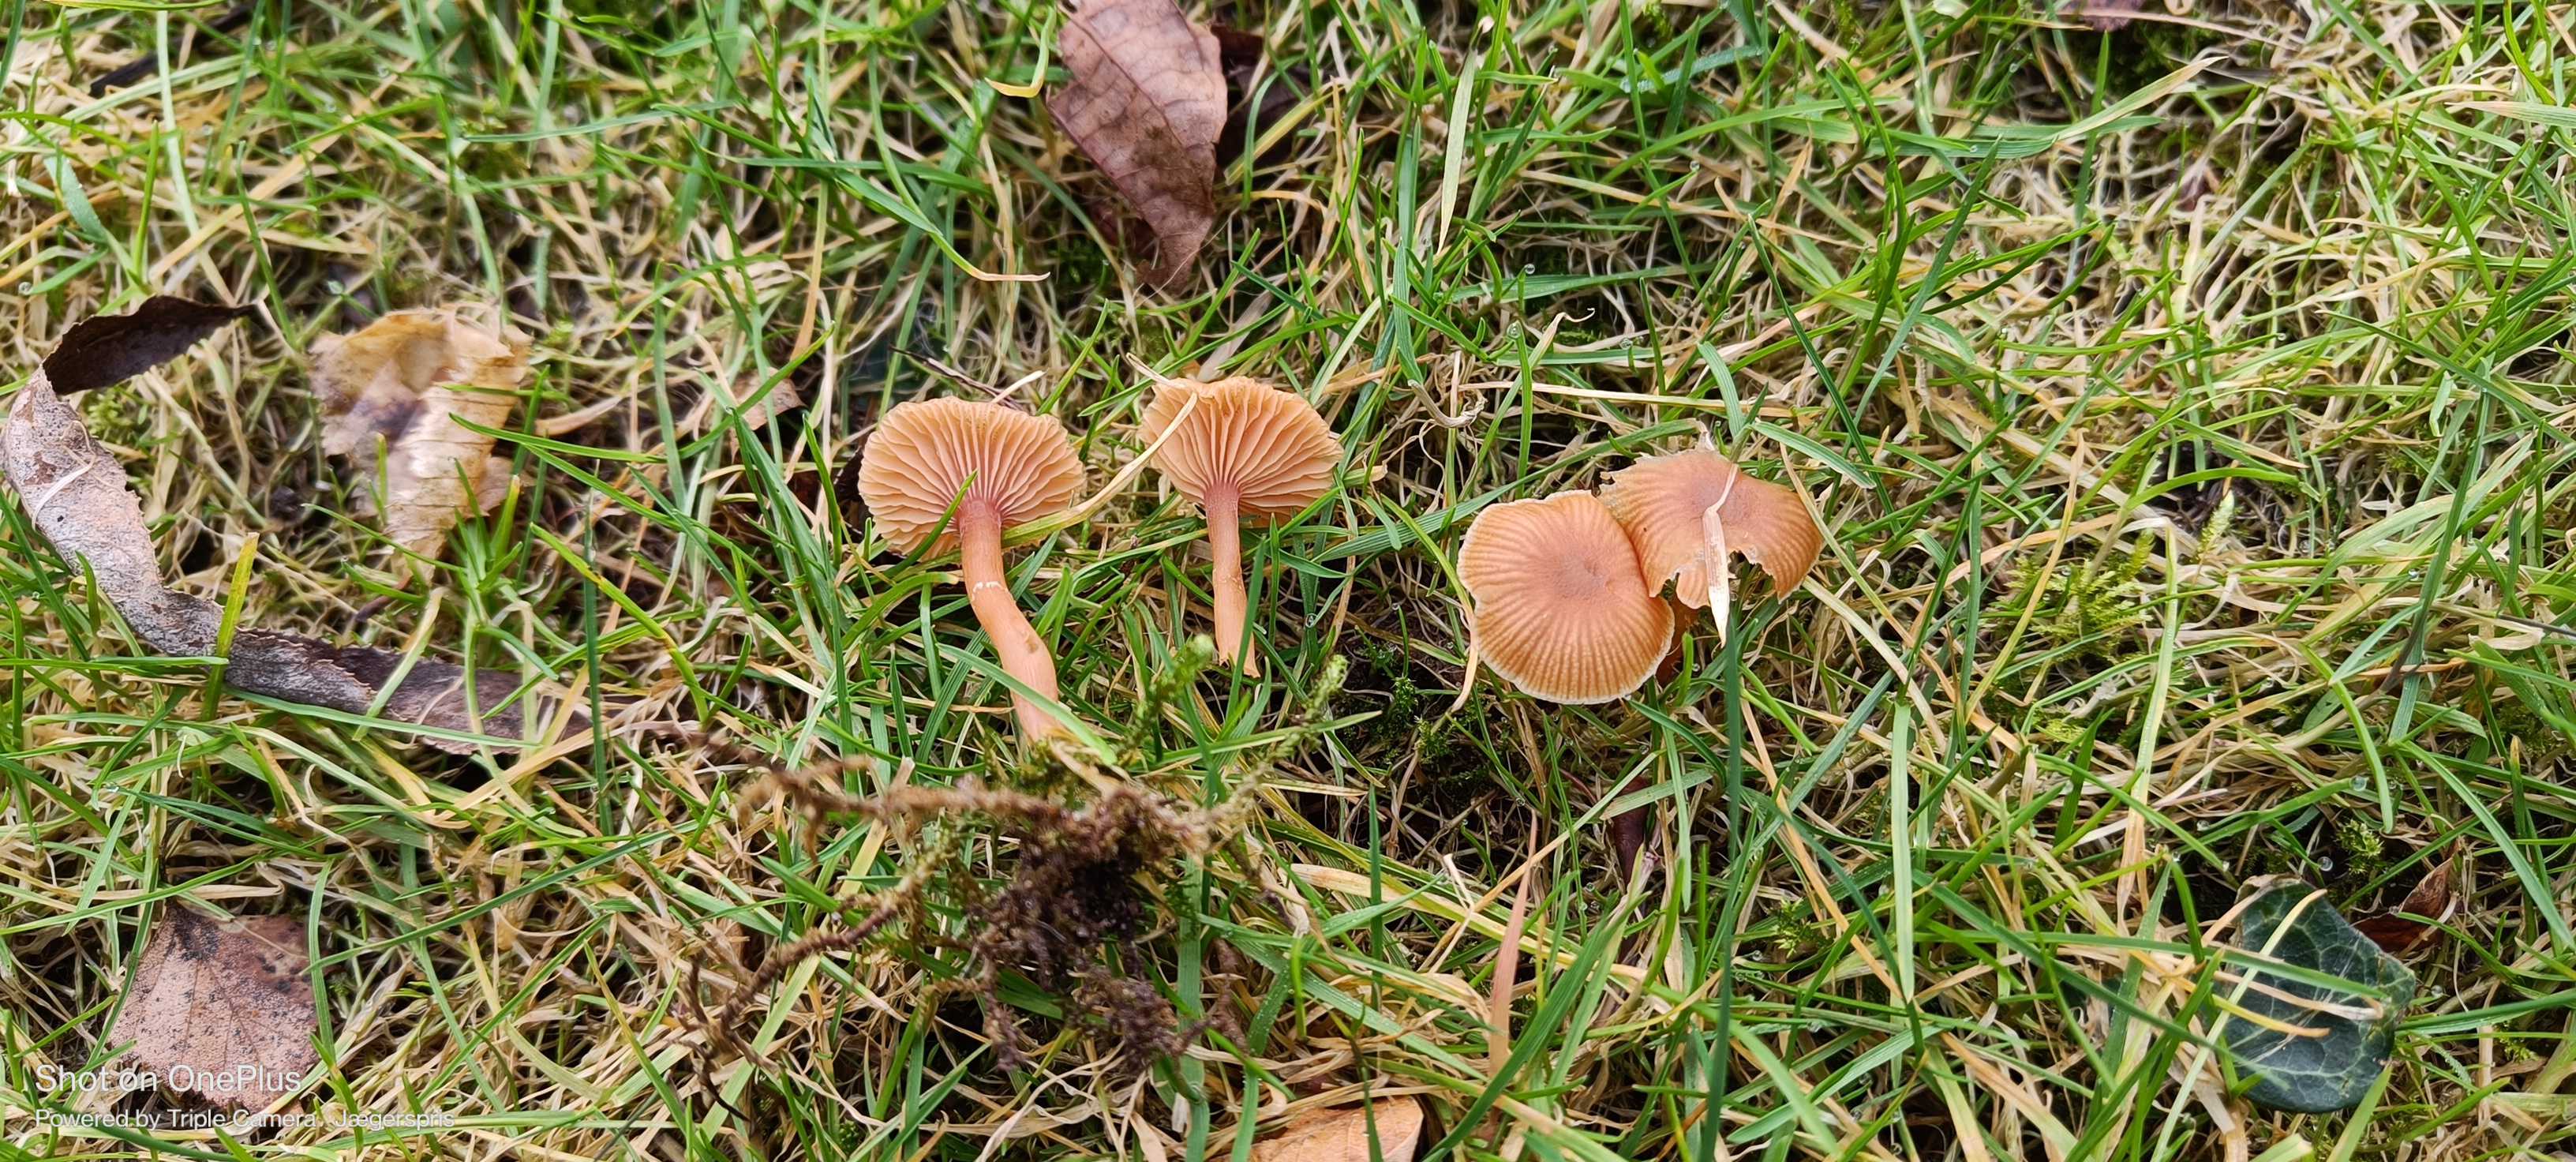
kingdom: Fungi
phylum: Basidiomycota
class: Agaricomycetes
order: Agaricales
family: Tubariaceae
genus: Tubaria
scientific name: Tubaria furfuracea
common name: kliddet fnughat
